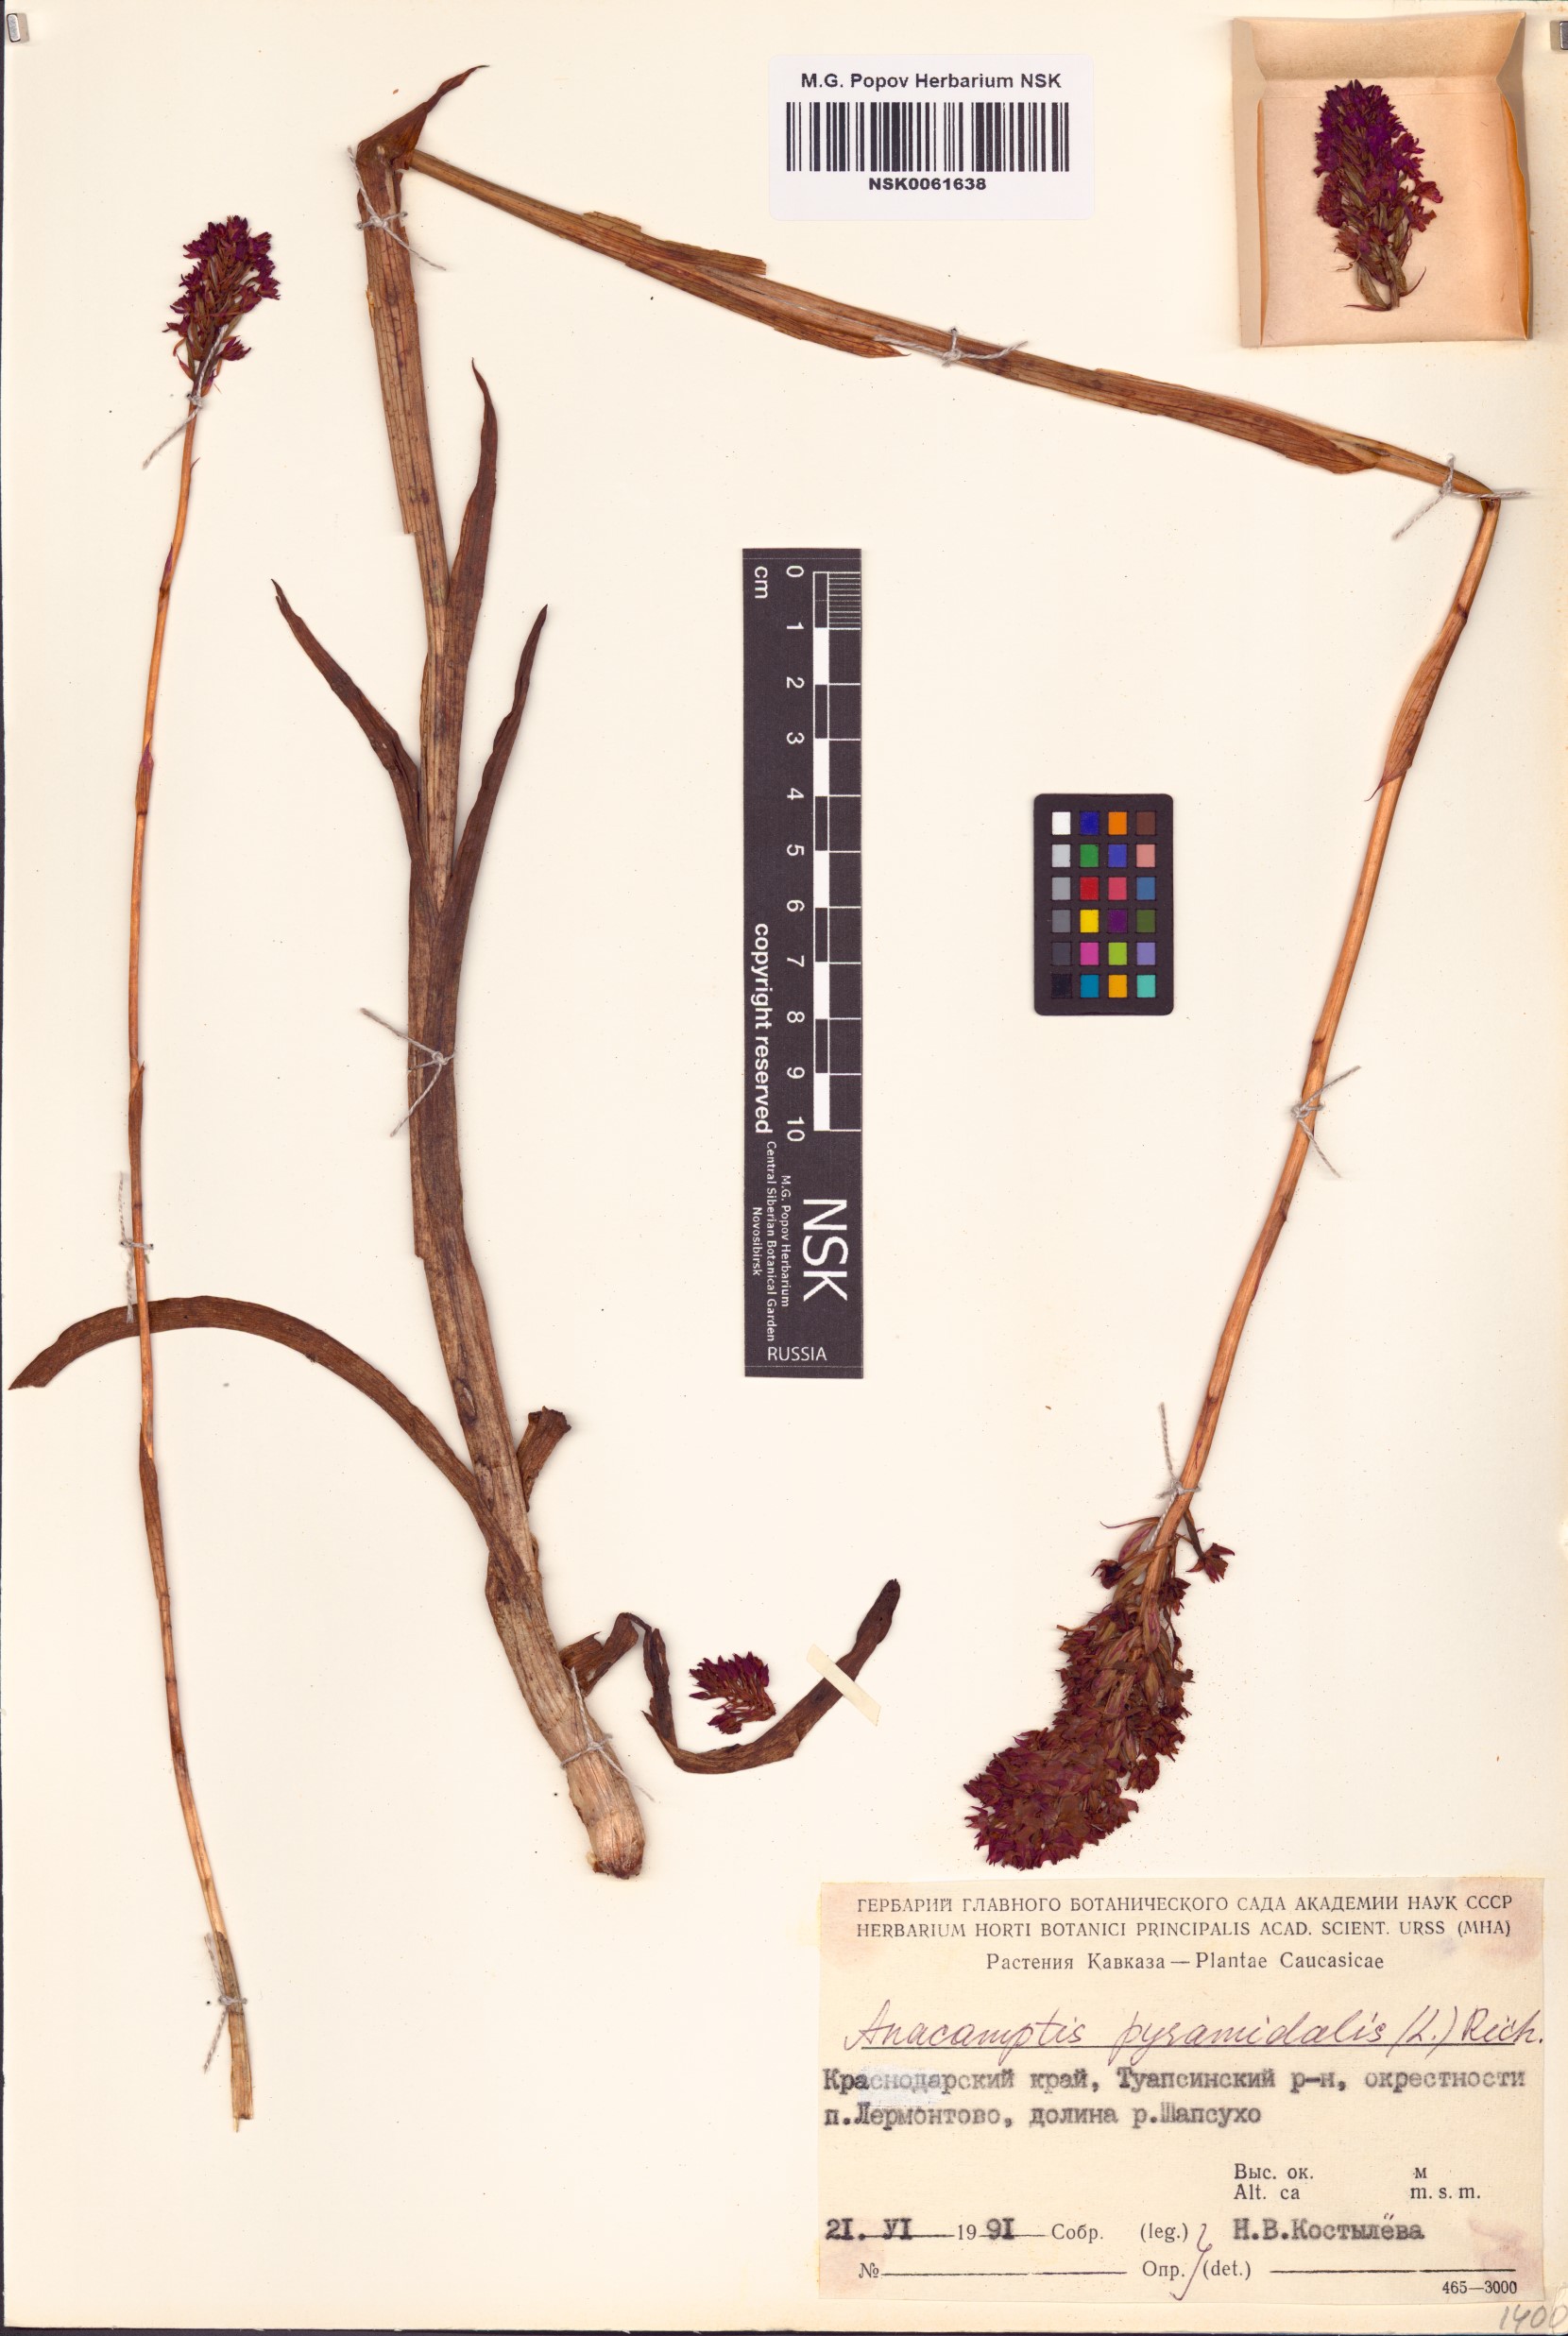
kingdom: Plantae
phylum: Tracheophyta
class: Liliopsida
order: Asparagales
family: Orchidaceae
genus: Anacamptis
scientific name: Anacamptis pyramidalis
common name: Pyramidal orchid
